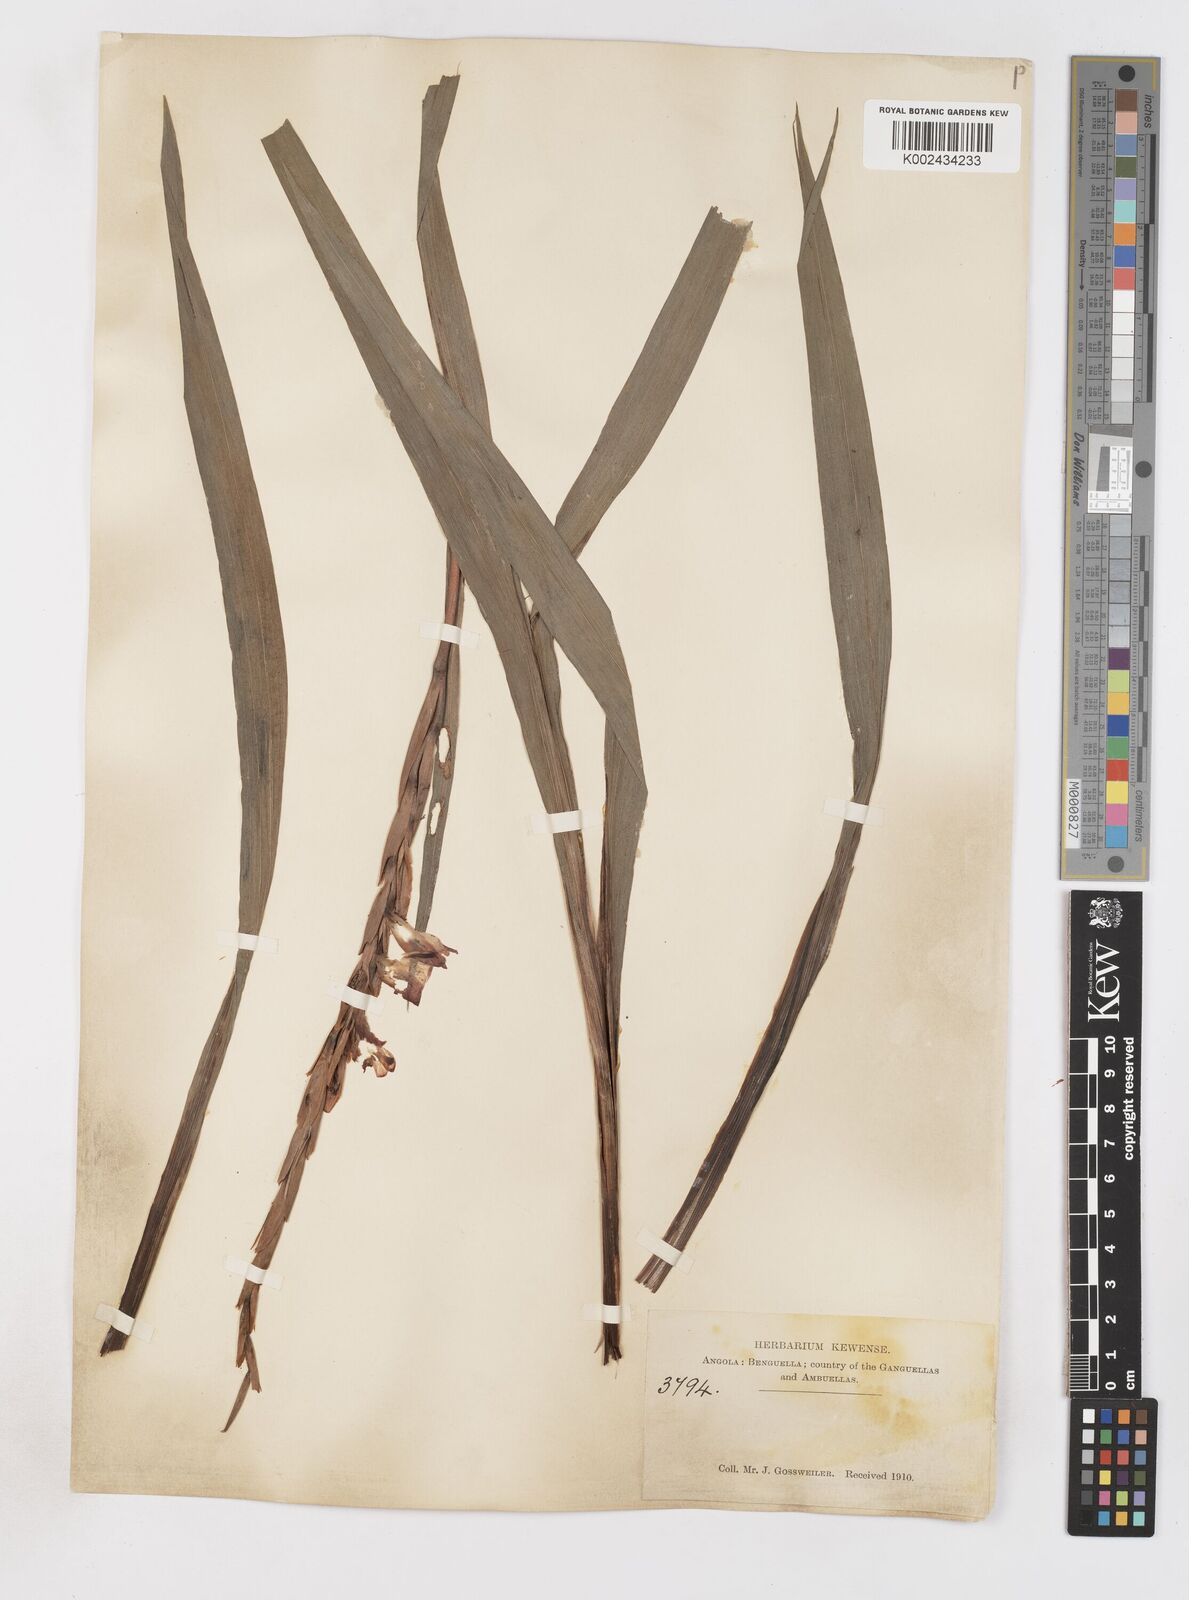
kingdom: Plantae
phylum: Tracheophyta
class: Liliopsida
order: Asparagales
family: Iridaceae
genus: Gladiolus
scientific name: Gladiolus gregarius
